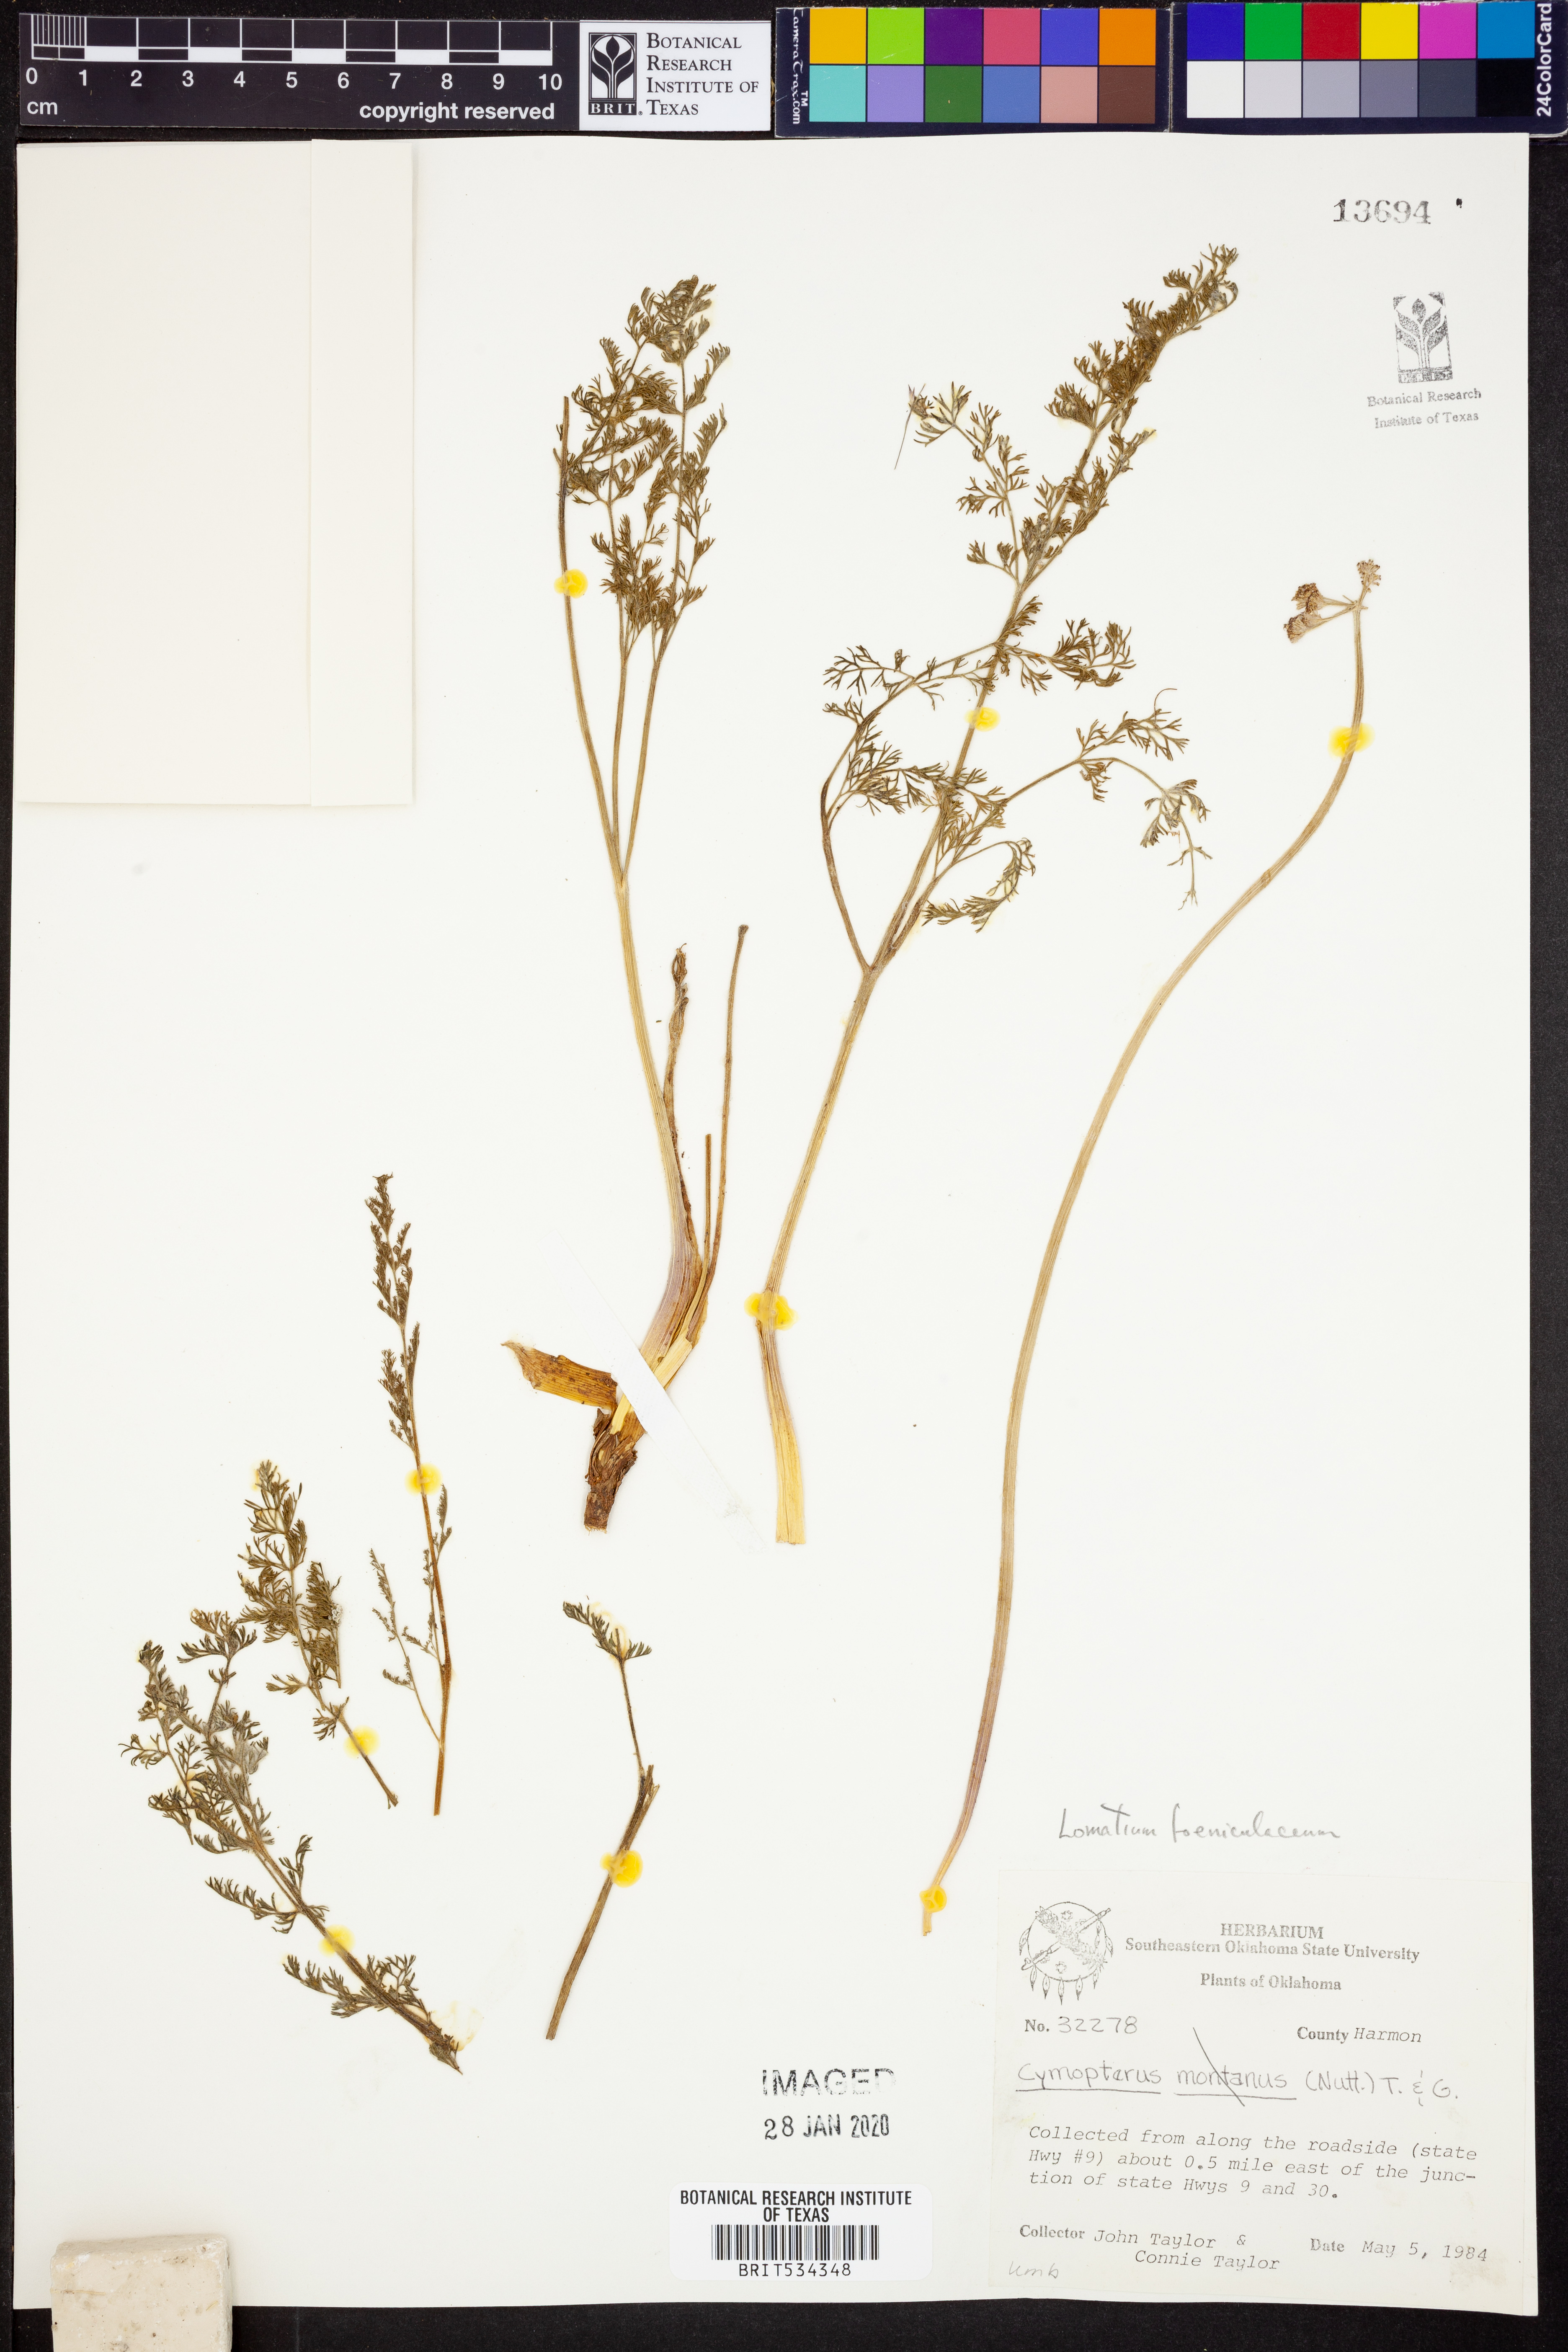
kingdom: Plantae
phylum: Tracheophyta
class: Magnoliopsida
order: Apiales
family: Apiaceae
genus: Lomatium
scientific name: Lomatium foeniculaceum
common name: Desert-parsley
